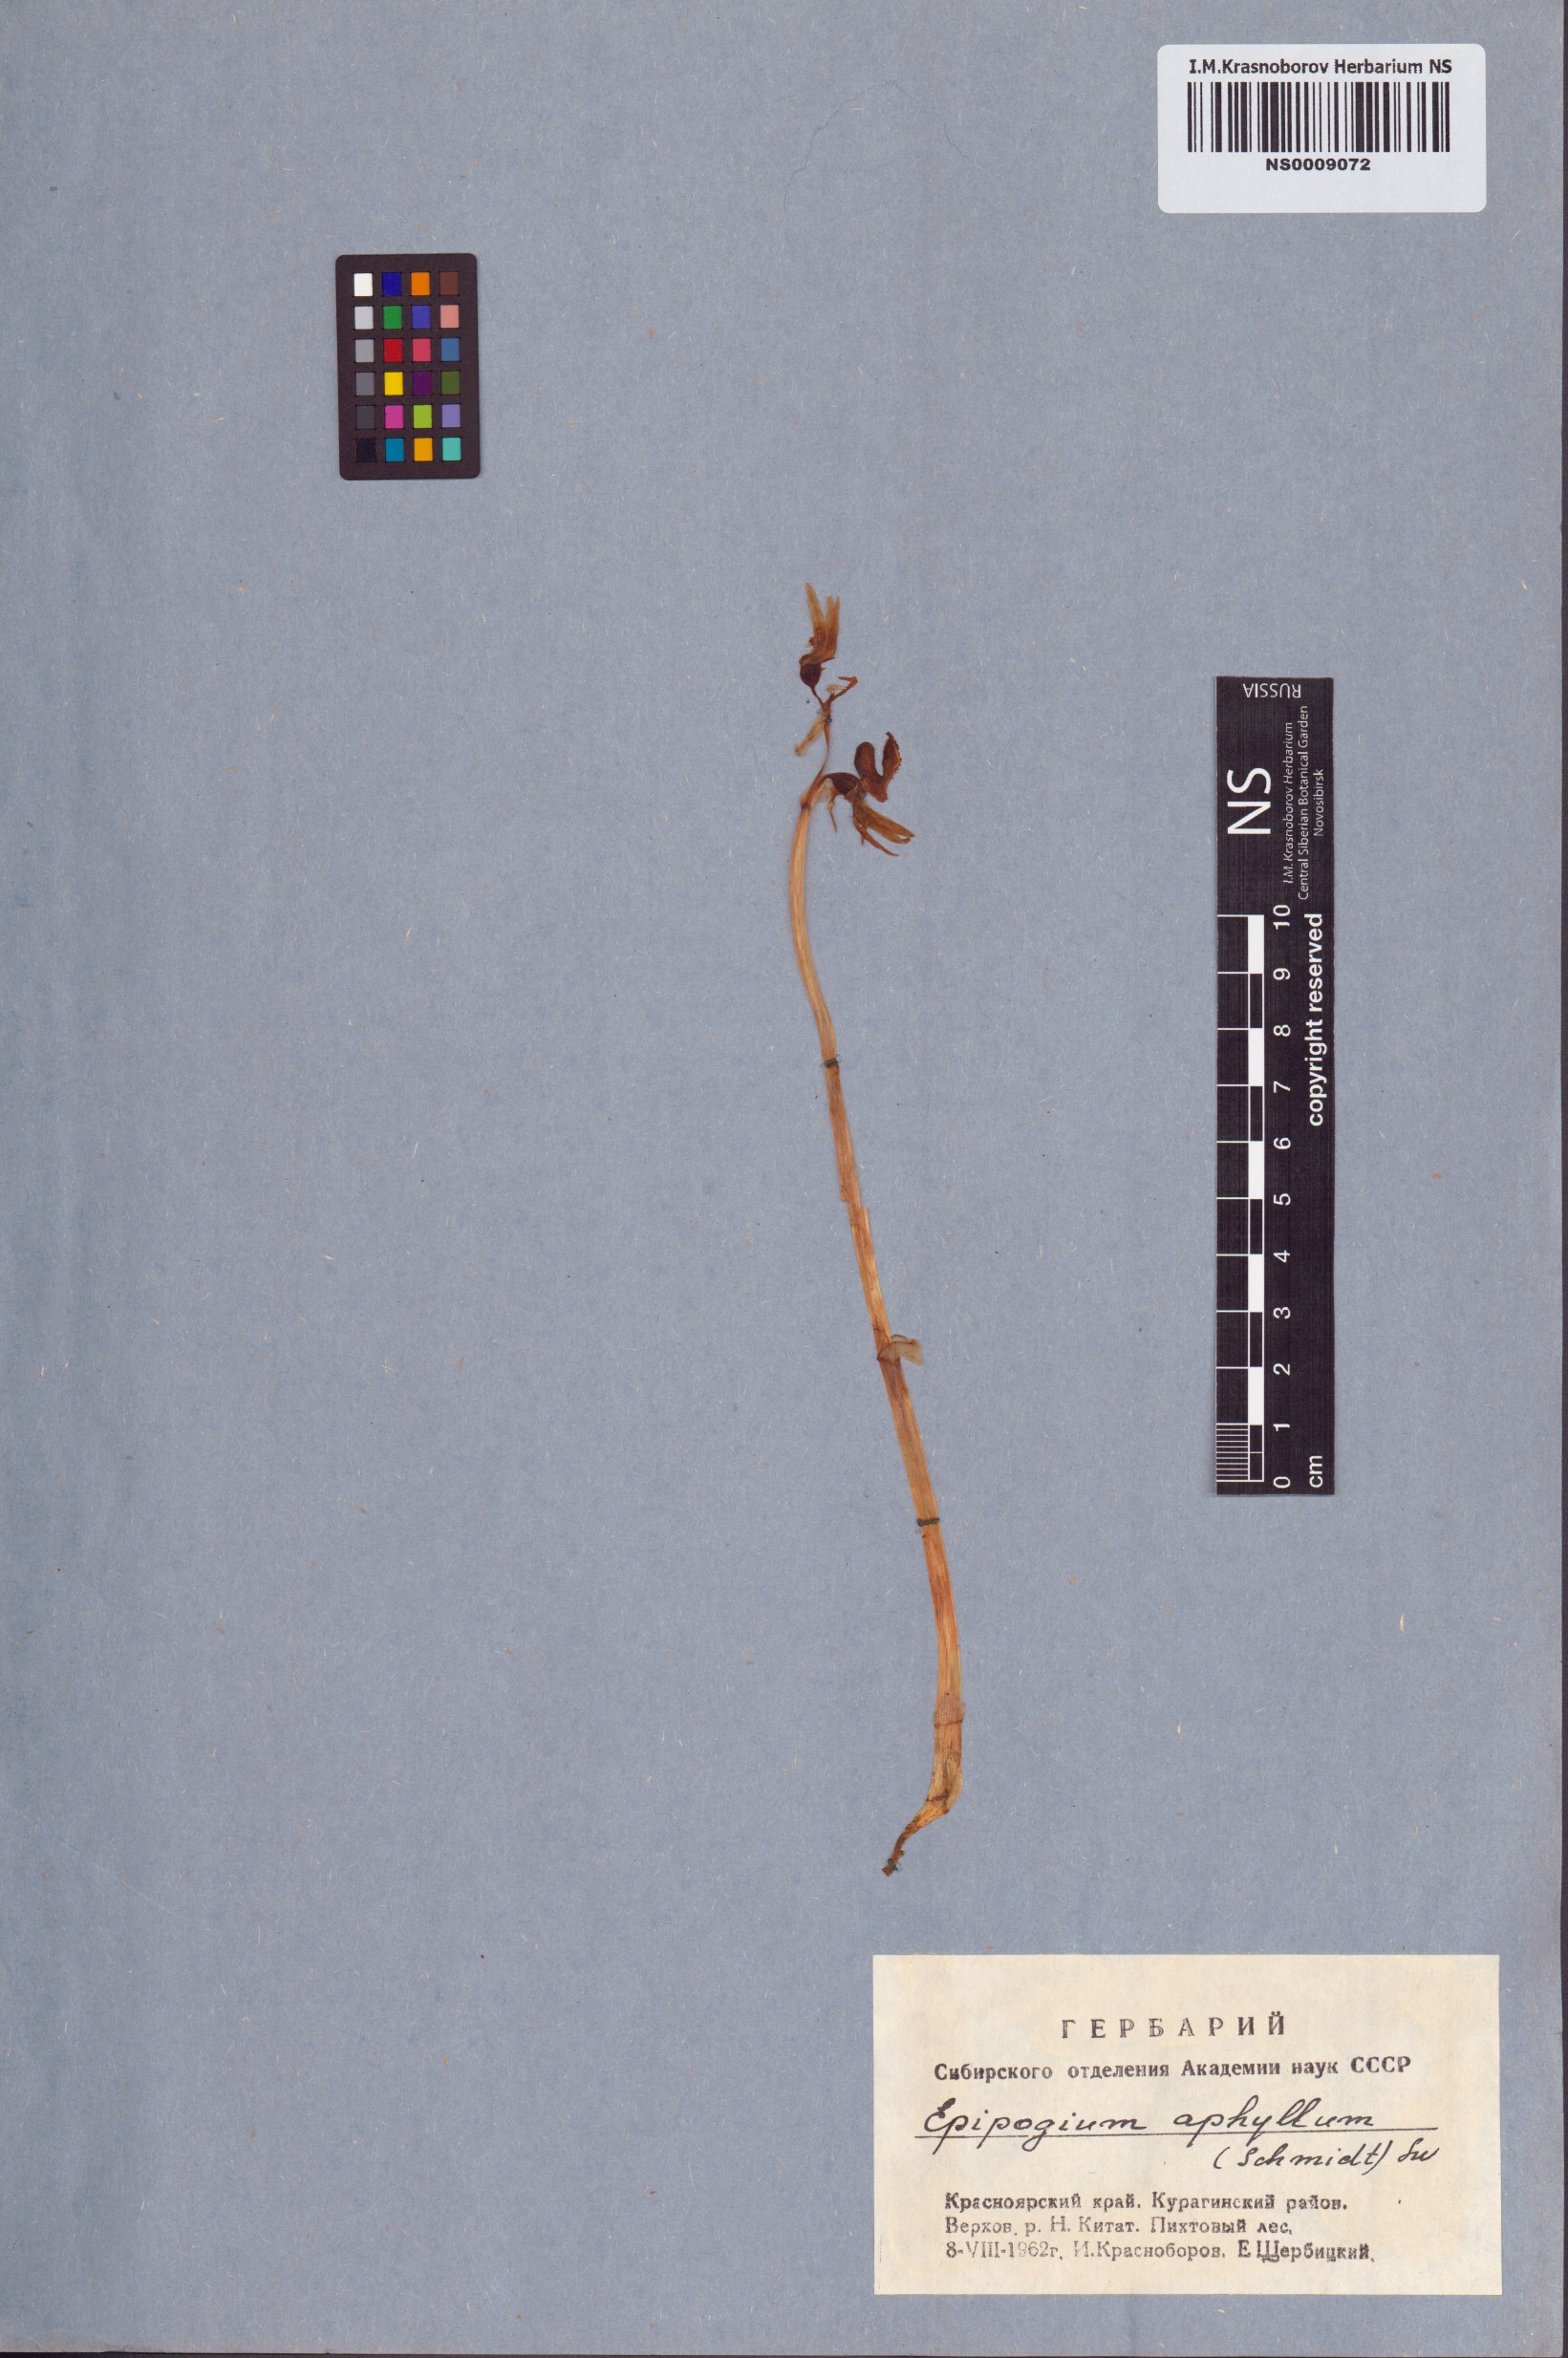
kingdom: Plantae
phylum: Tracheophyta
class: Liliopsida
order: Asparagales
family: Orchidaceae
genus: Epipogium
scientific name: Epipogium aphyllum
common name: Ghost orchid
